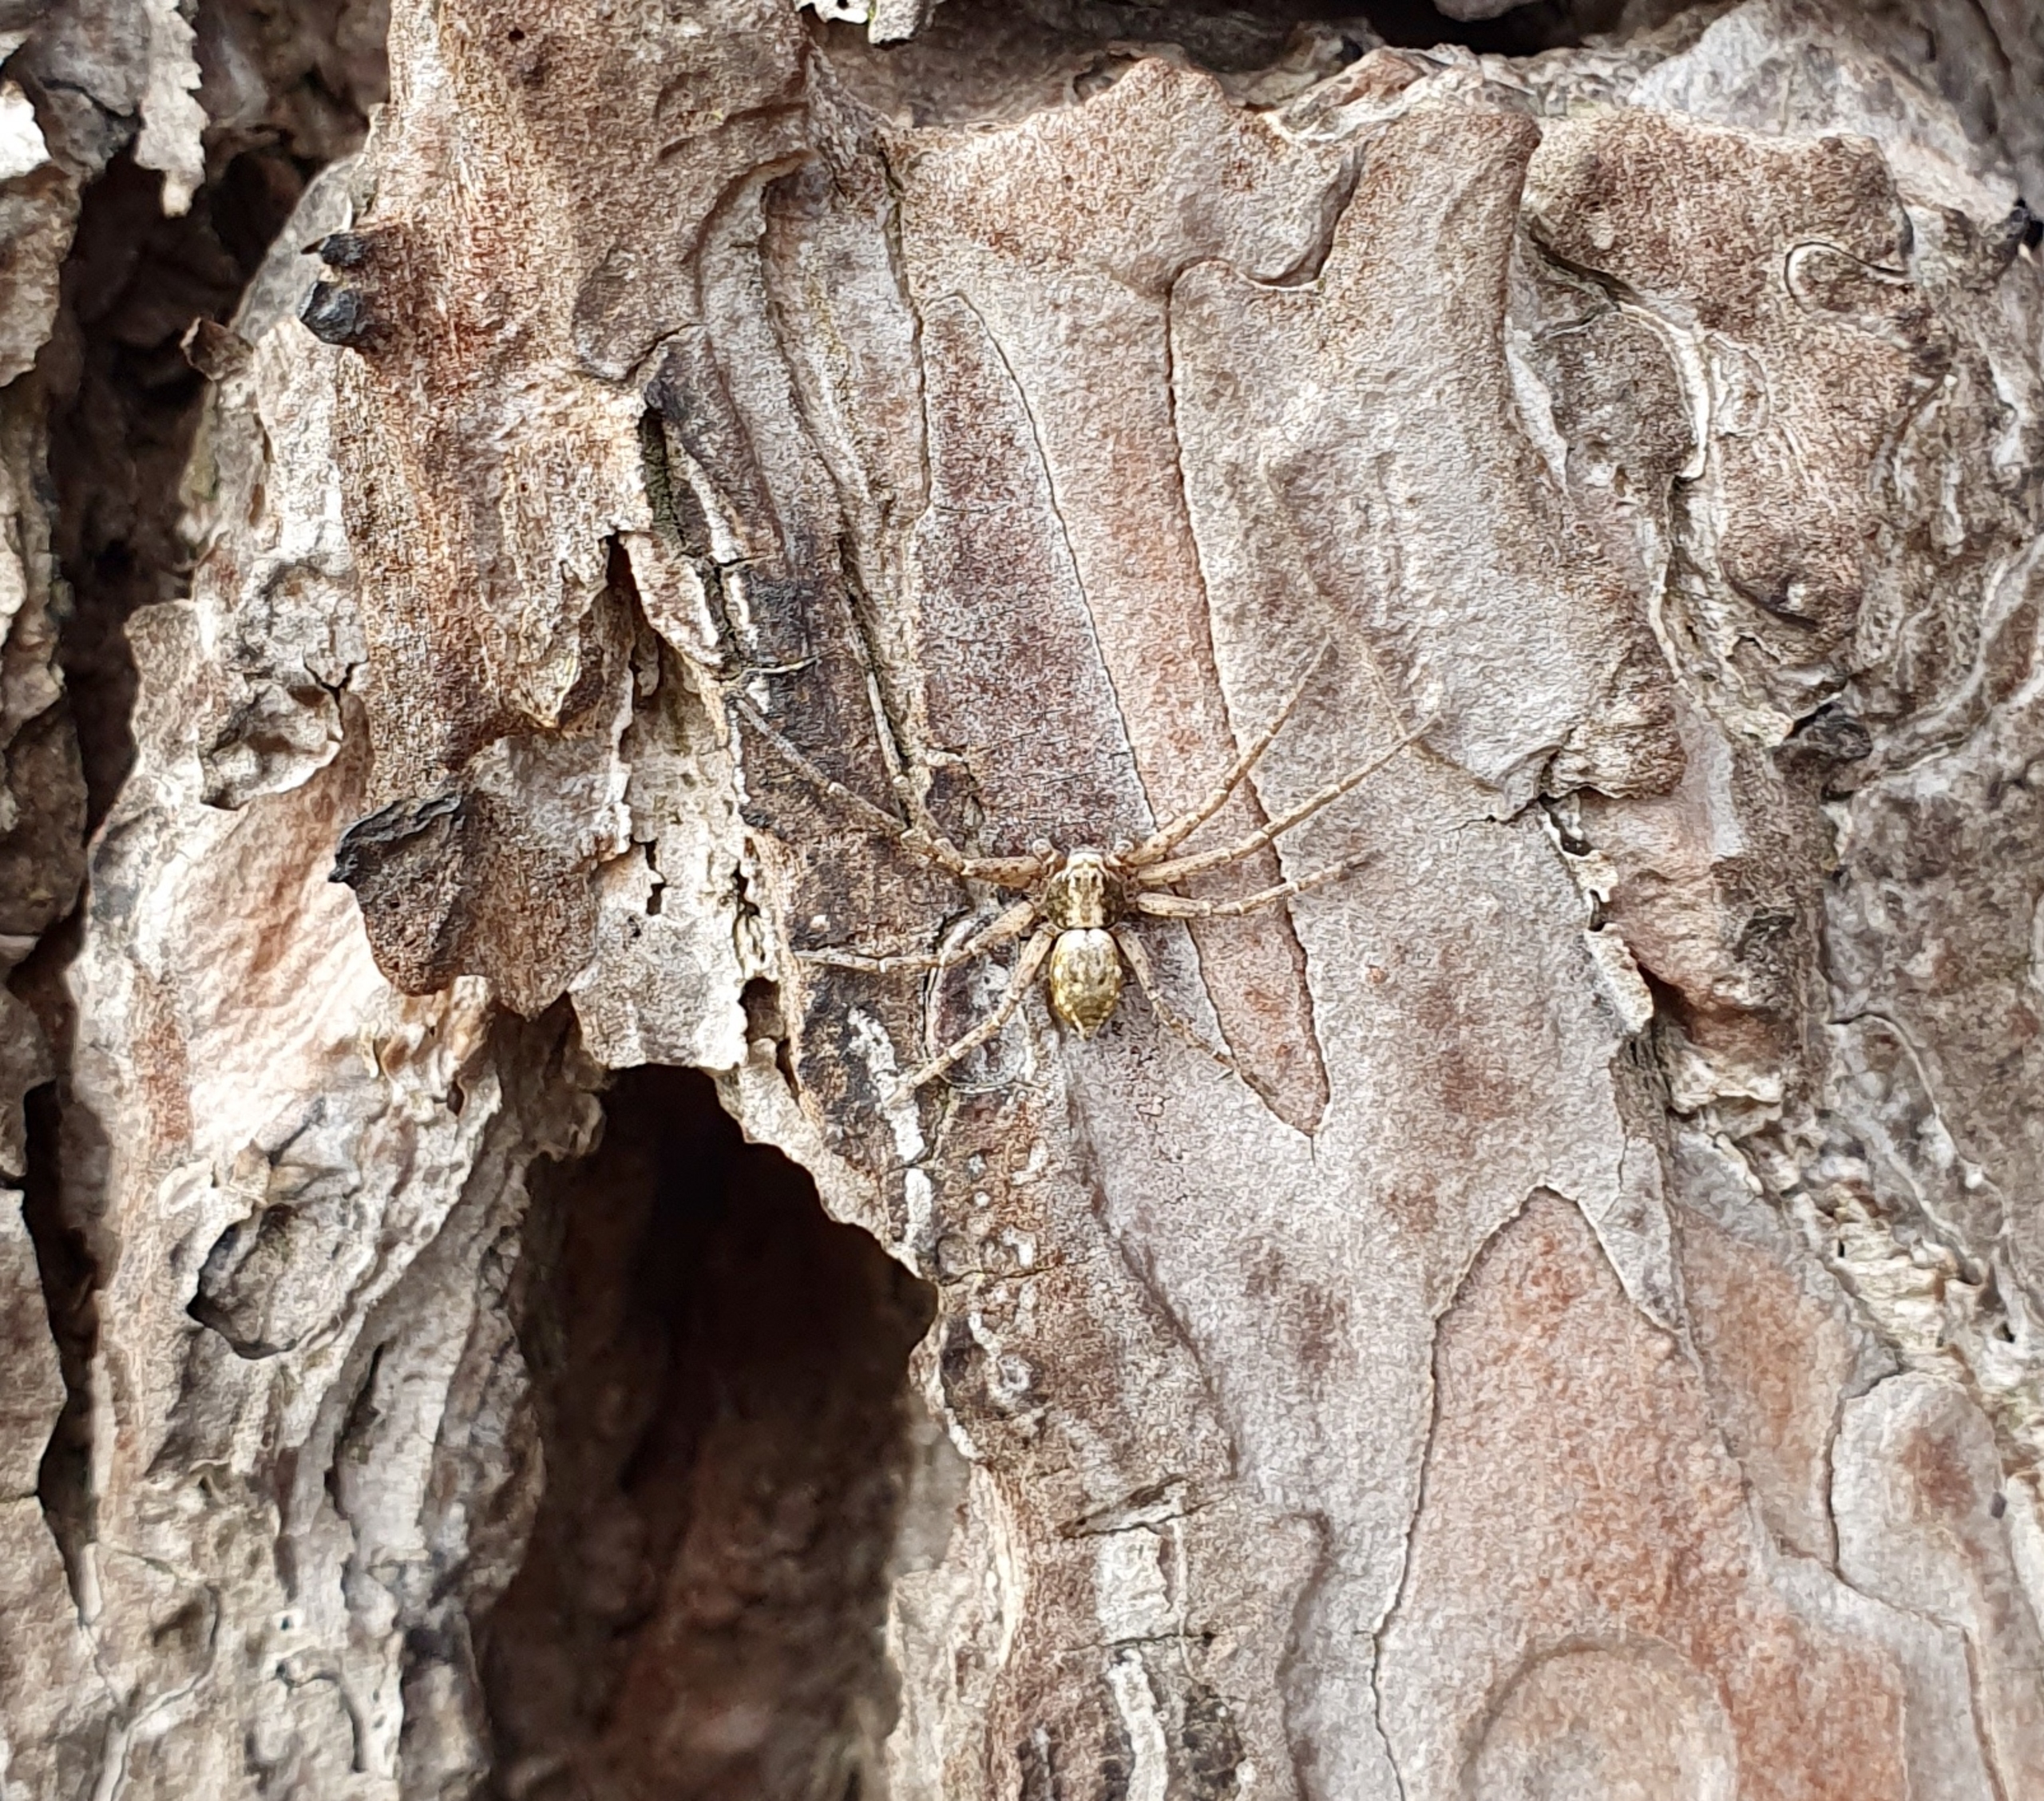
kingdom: Animalia
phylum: Arthropoda
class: Arachnida
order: Araneae
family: Philodromidae
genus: Philodromus
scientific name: Philodromus aureolus
